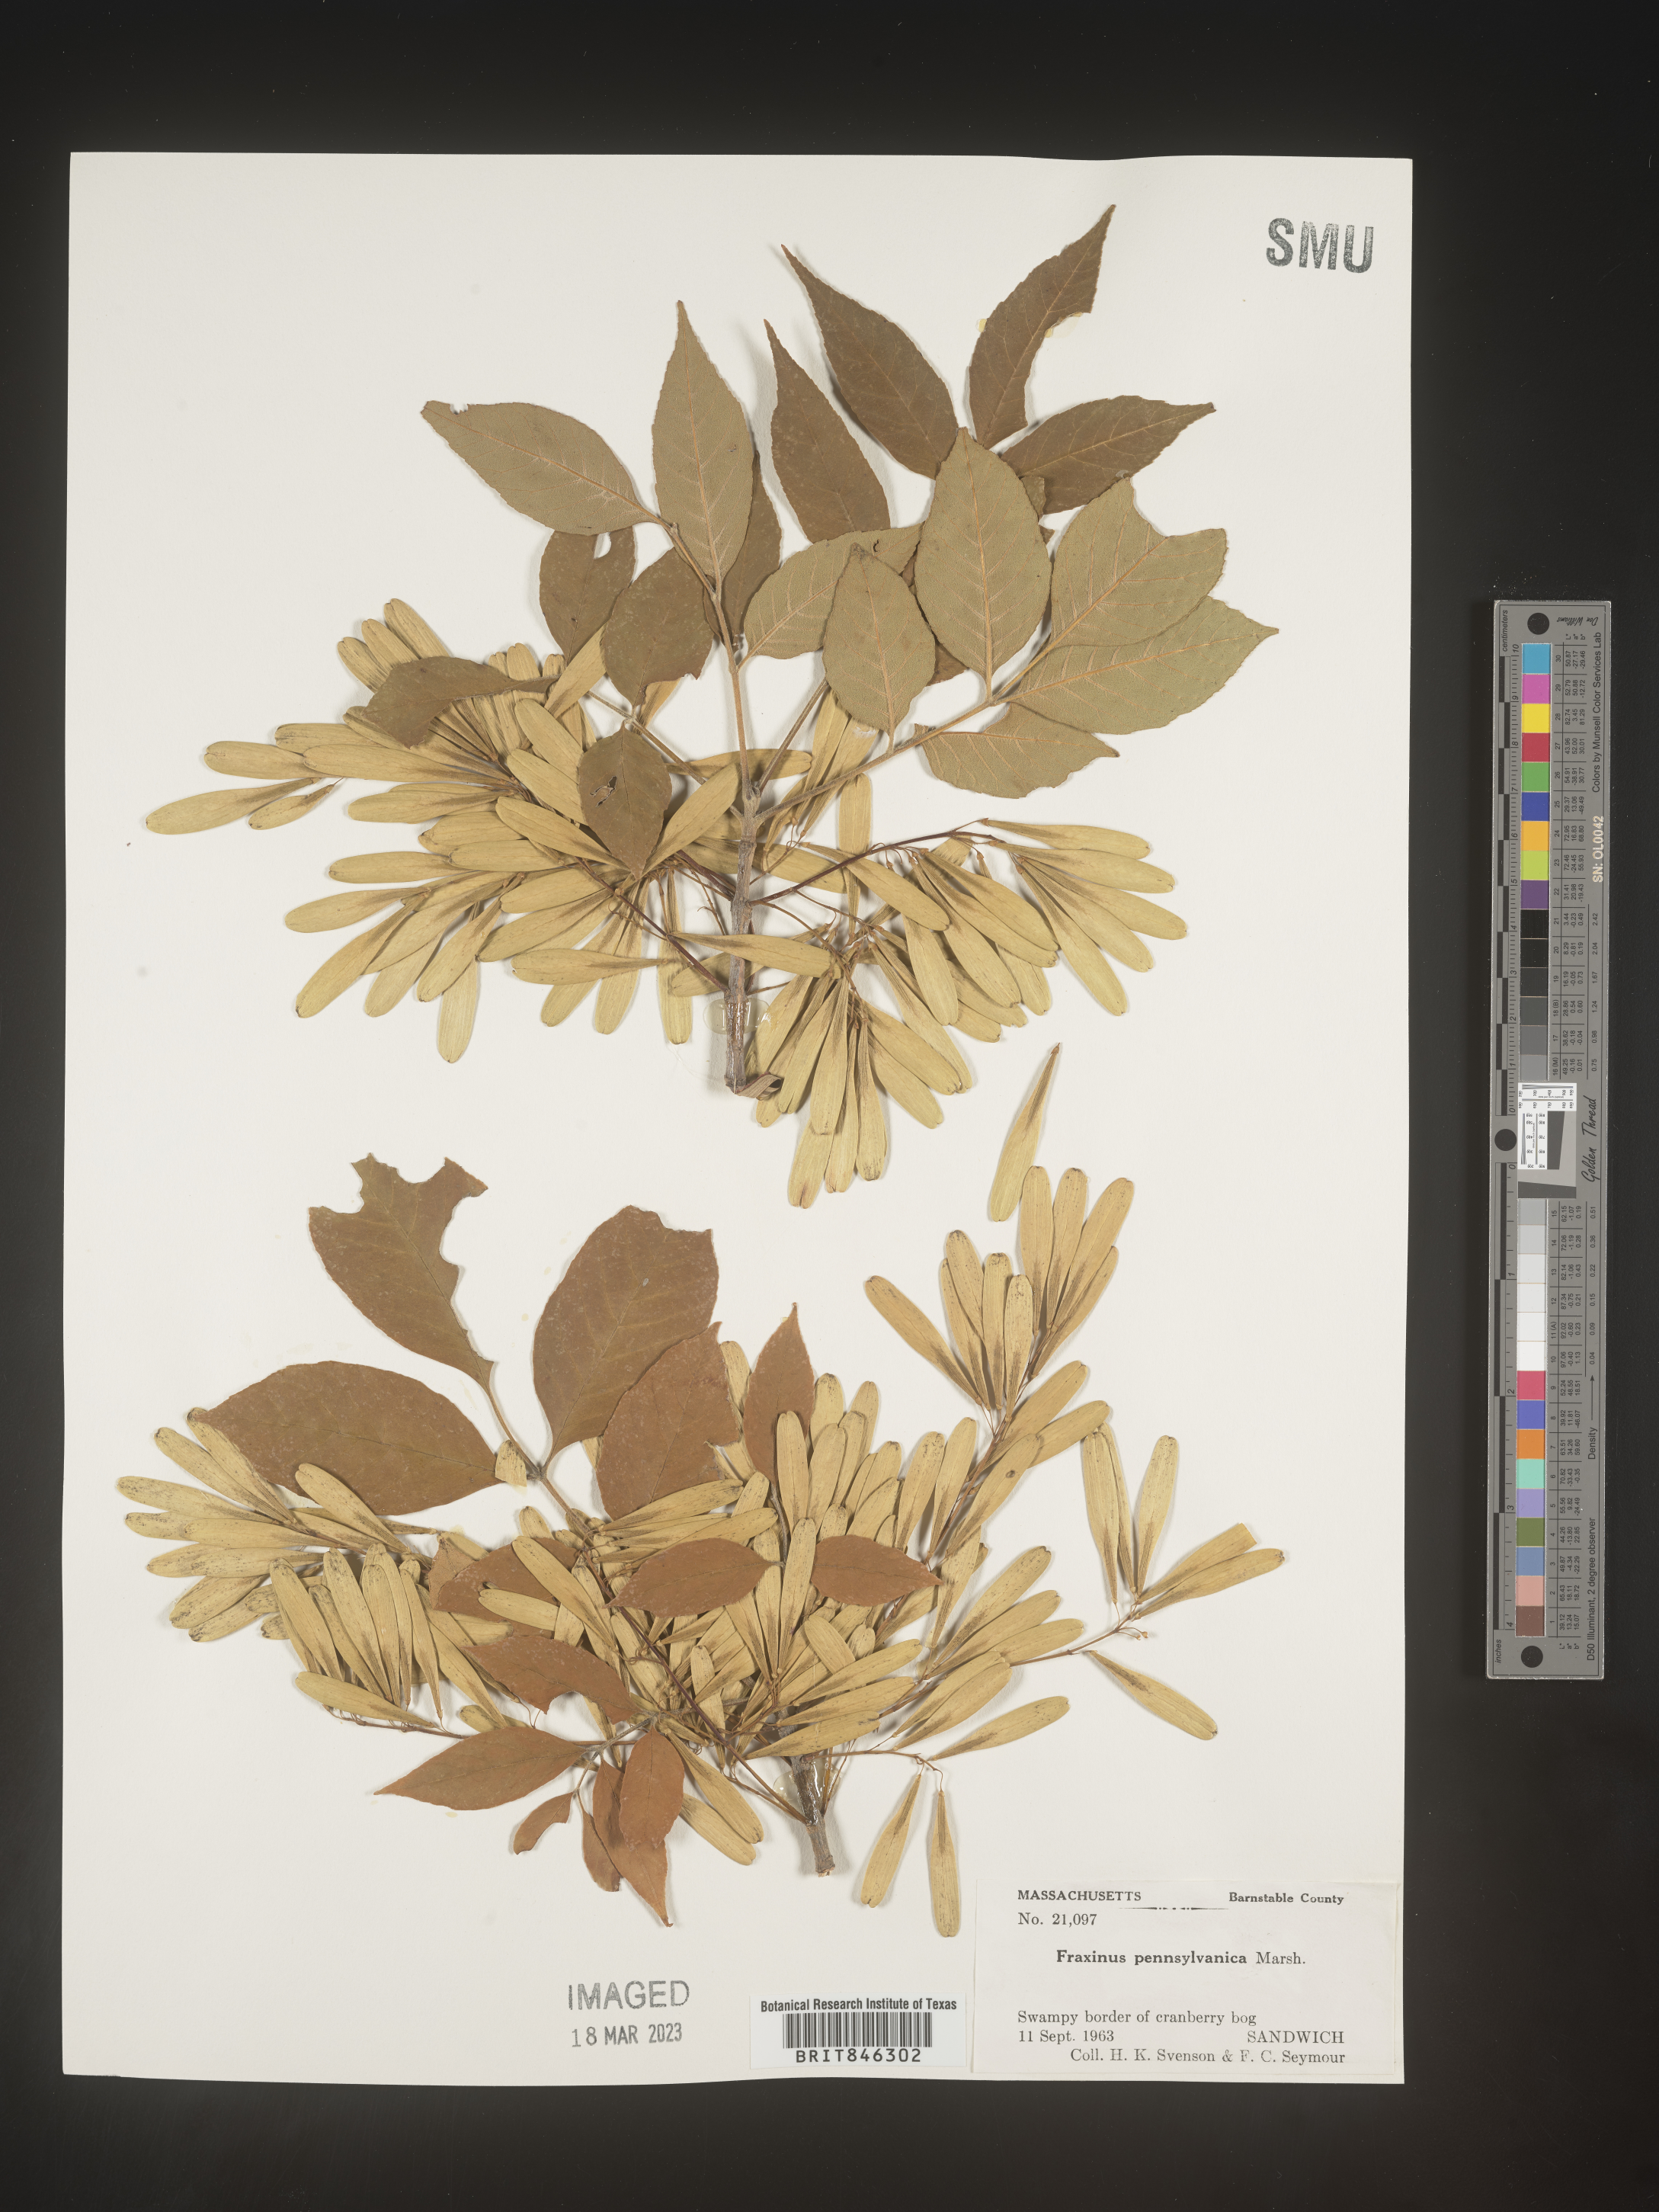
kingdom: Plantae
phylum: Tracheophyta
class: Magnoliopsida
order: Lamiales
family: Oleaceae
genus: Fraxinus
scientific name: Fraxinus pennsylvanica
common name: Green ash
